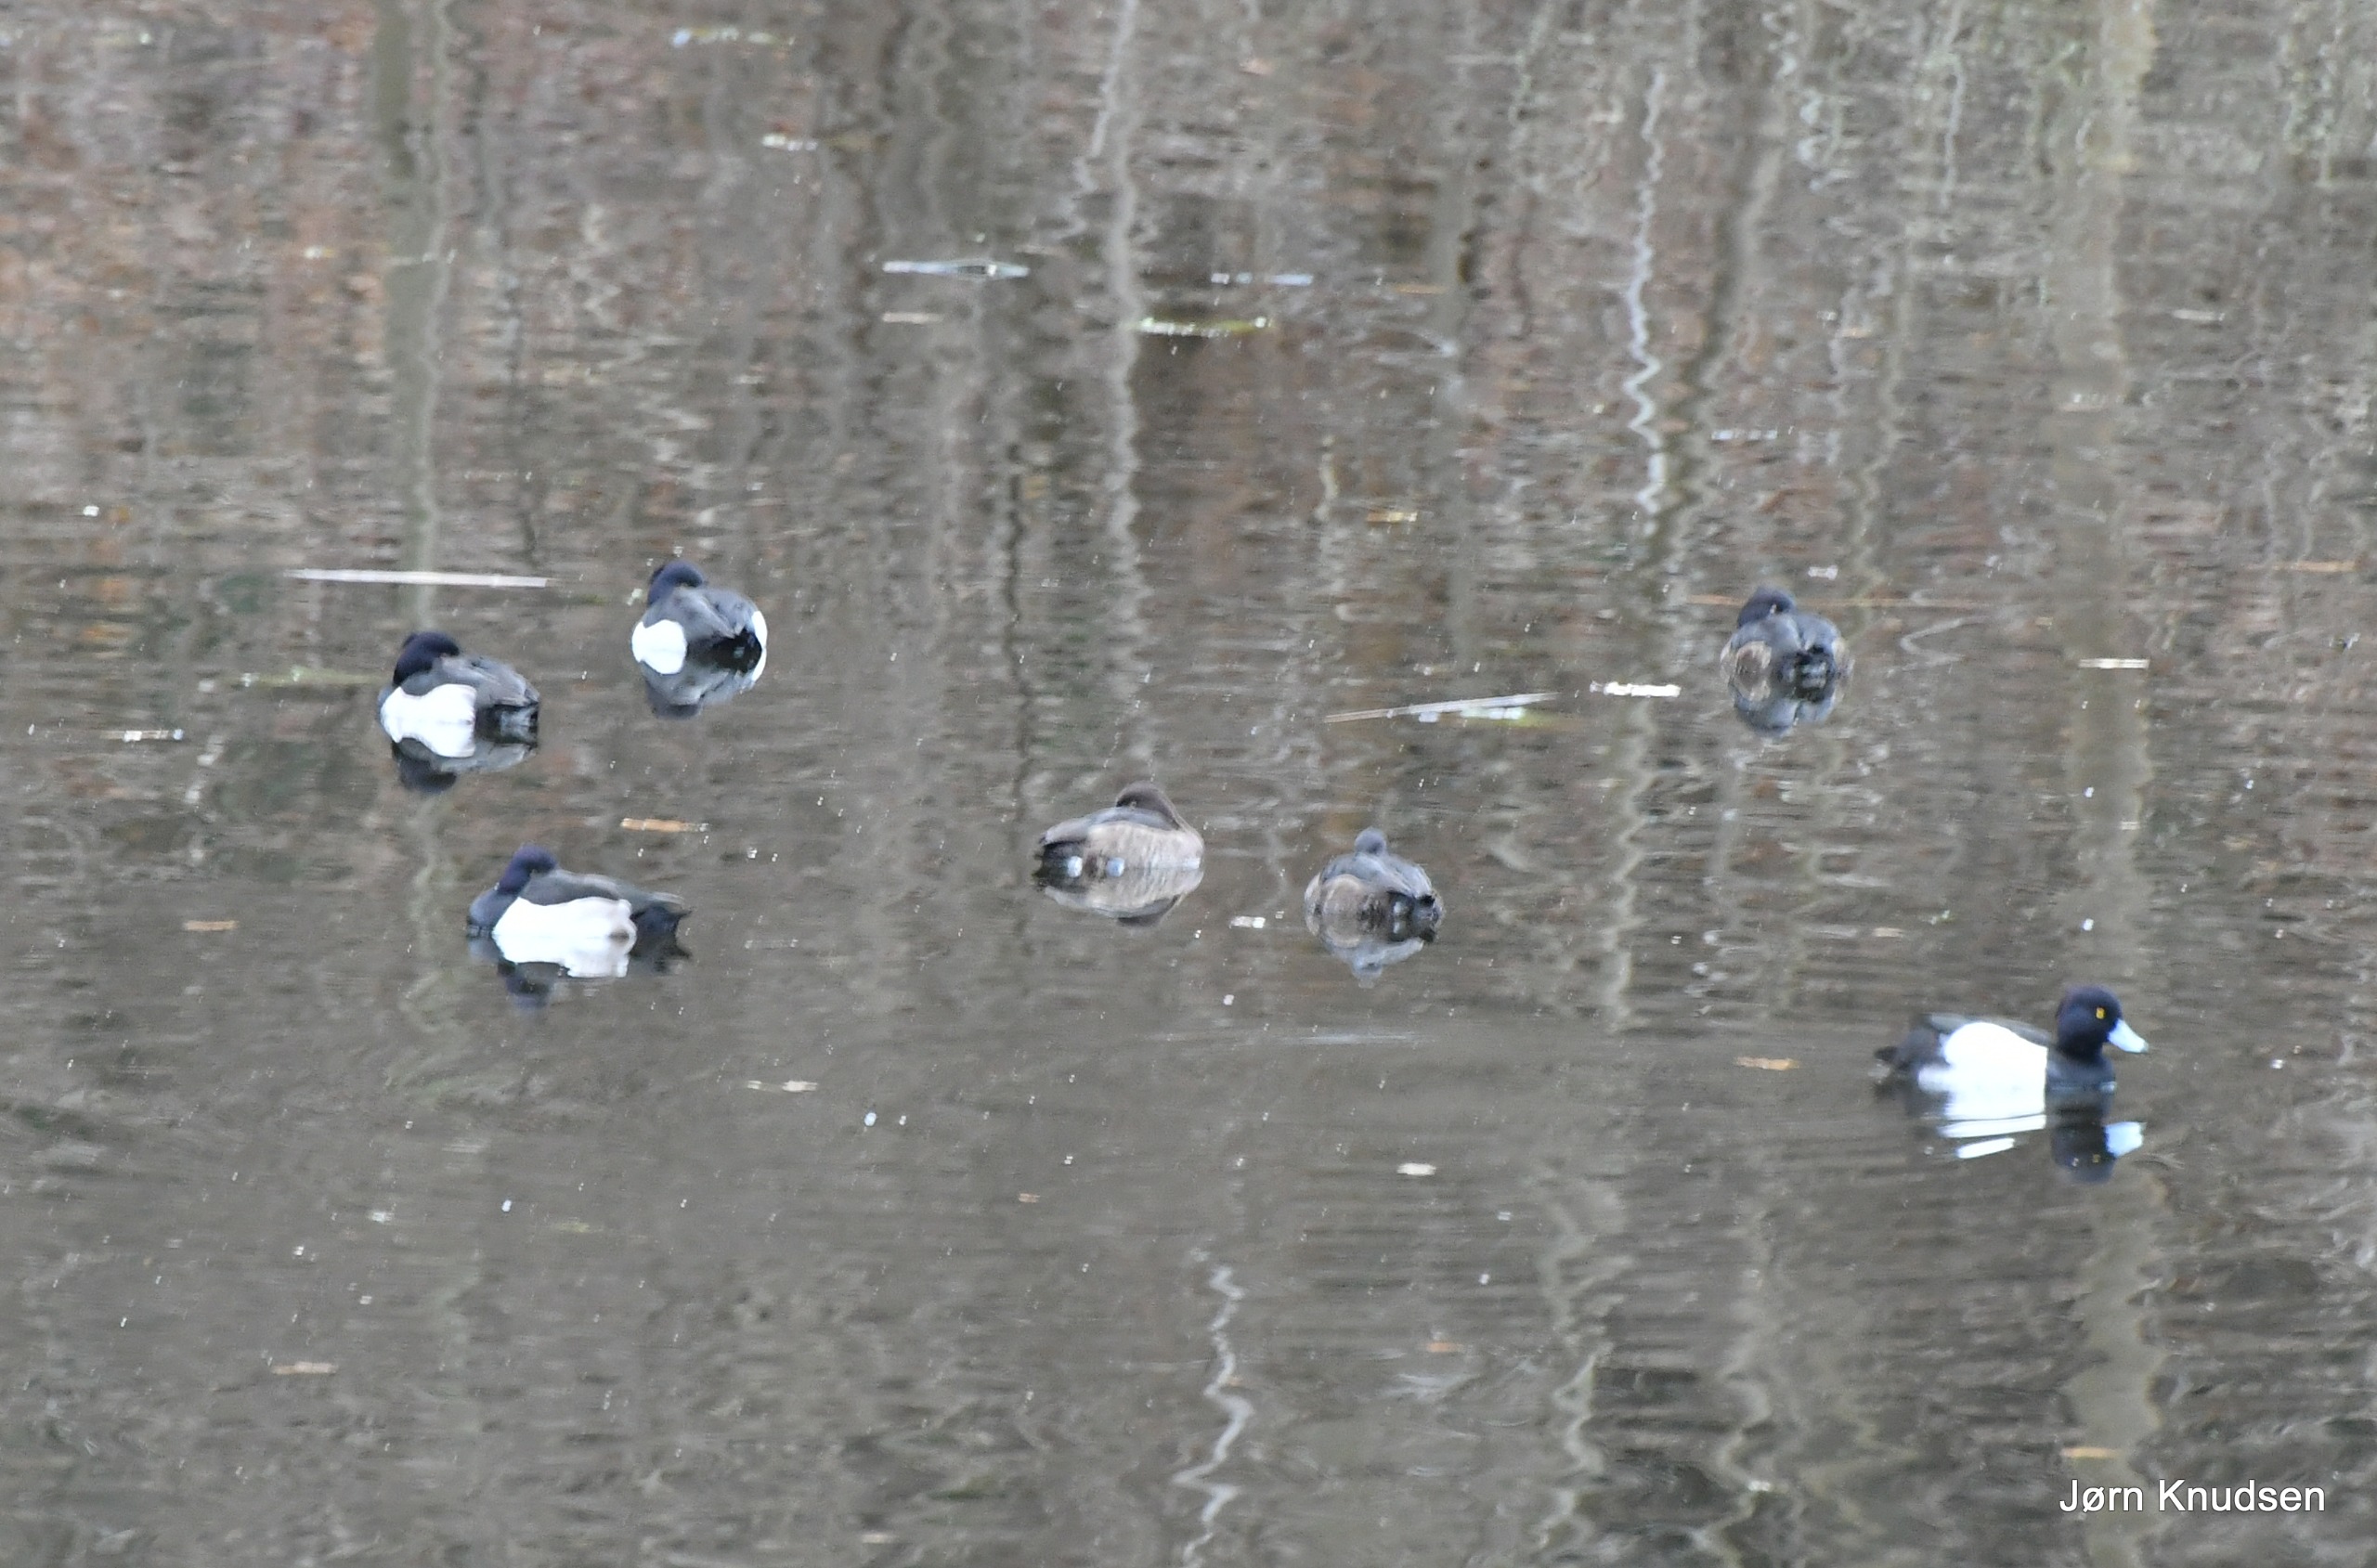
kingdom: Animalia
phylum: Chordata
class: Aves
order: Anseriformes
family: Anatidae
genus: Aythya
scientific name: Aythya fuligula
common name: Troldand
